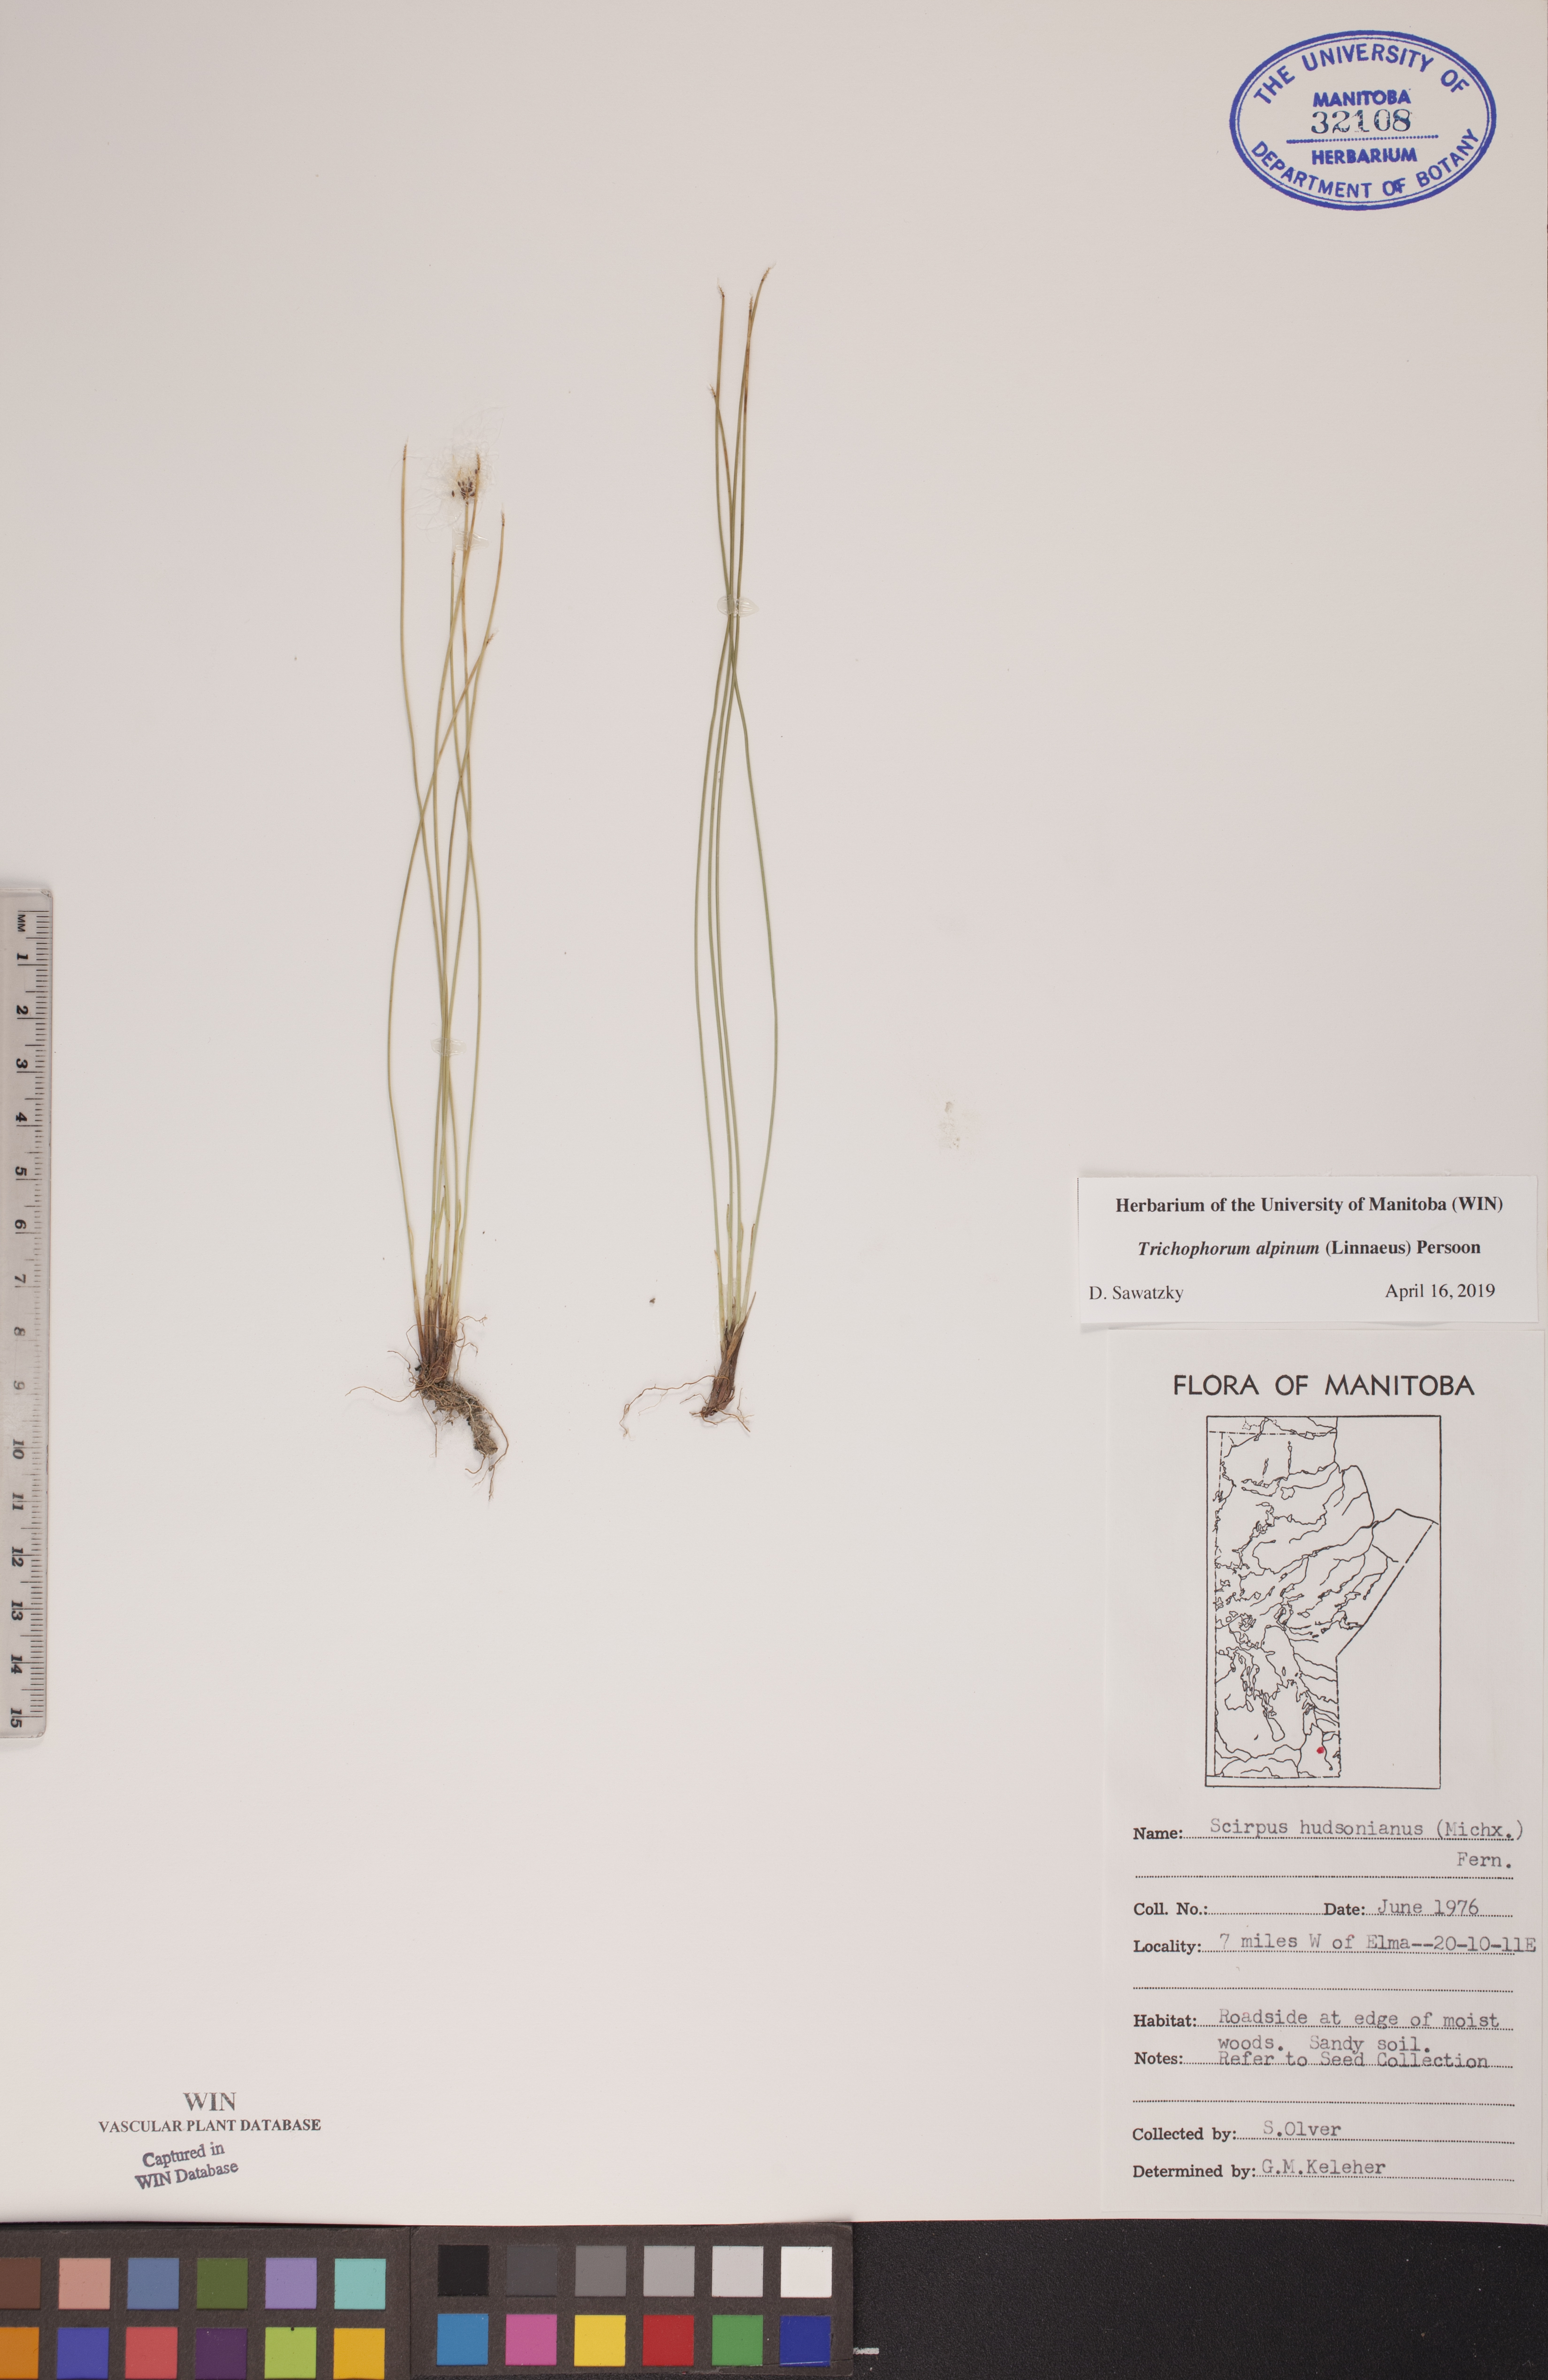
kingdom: Plantae
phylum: Tracheophyta
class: Liliopsida
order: Poales
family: Cyperaceae
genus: Trichophorum
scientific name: Trichophorum alpinum
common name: Alpine bulrush
